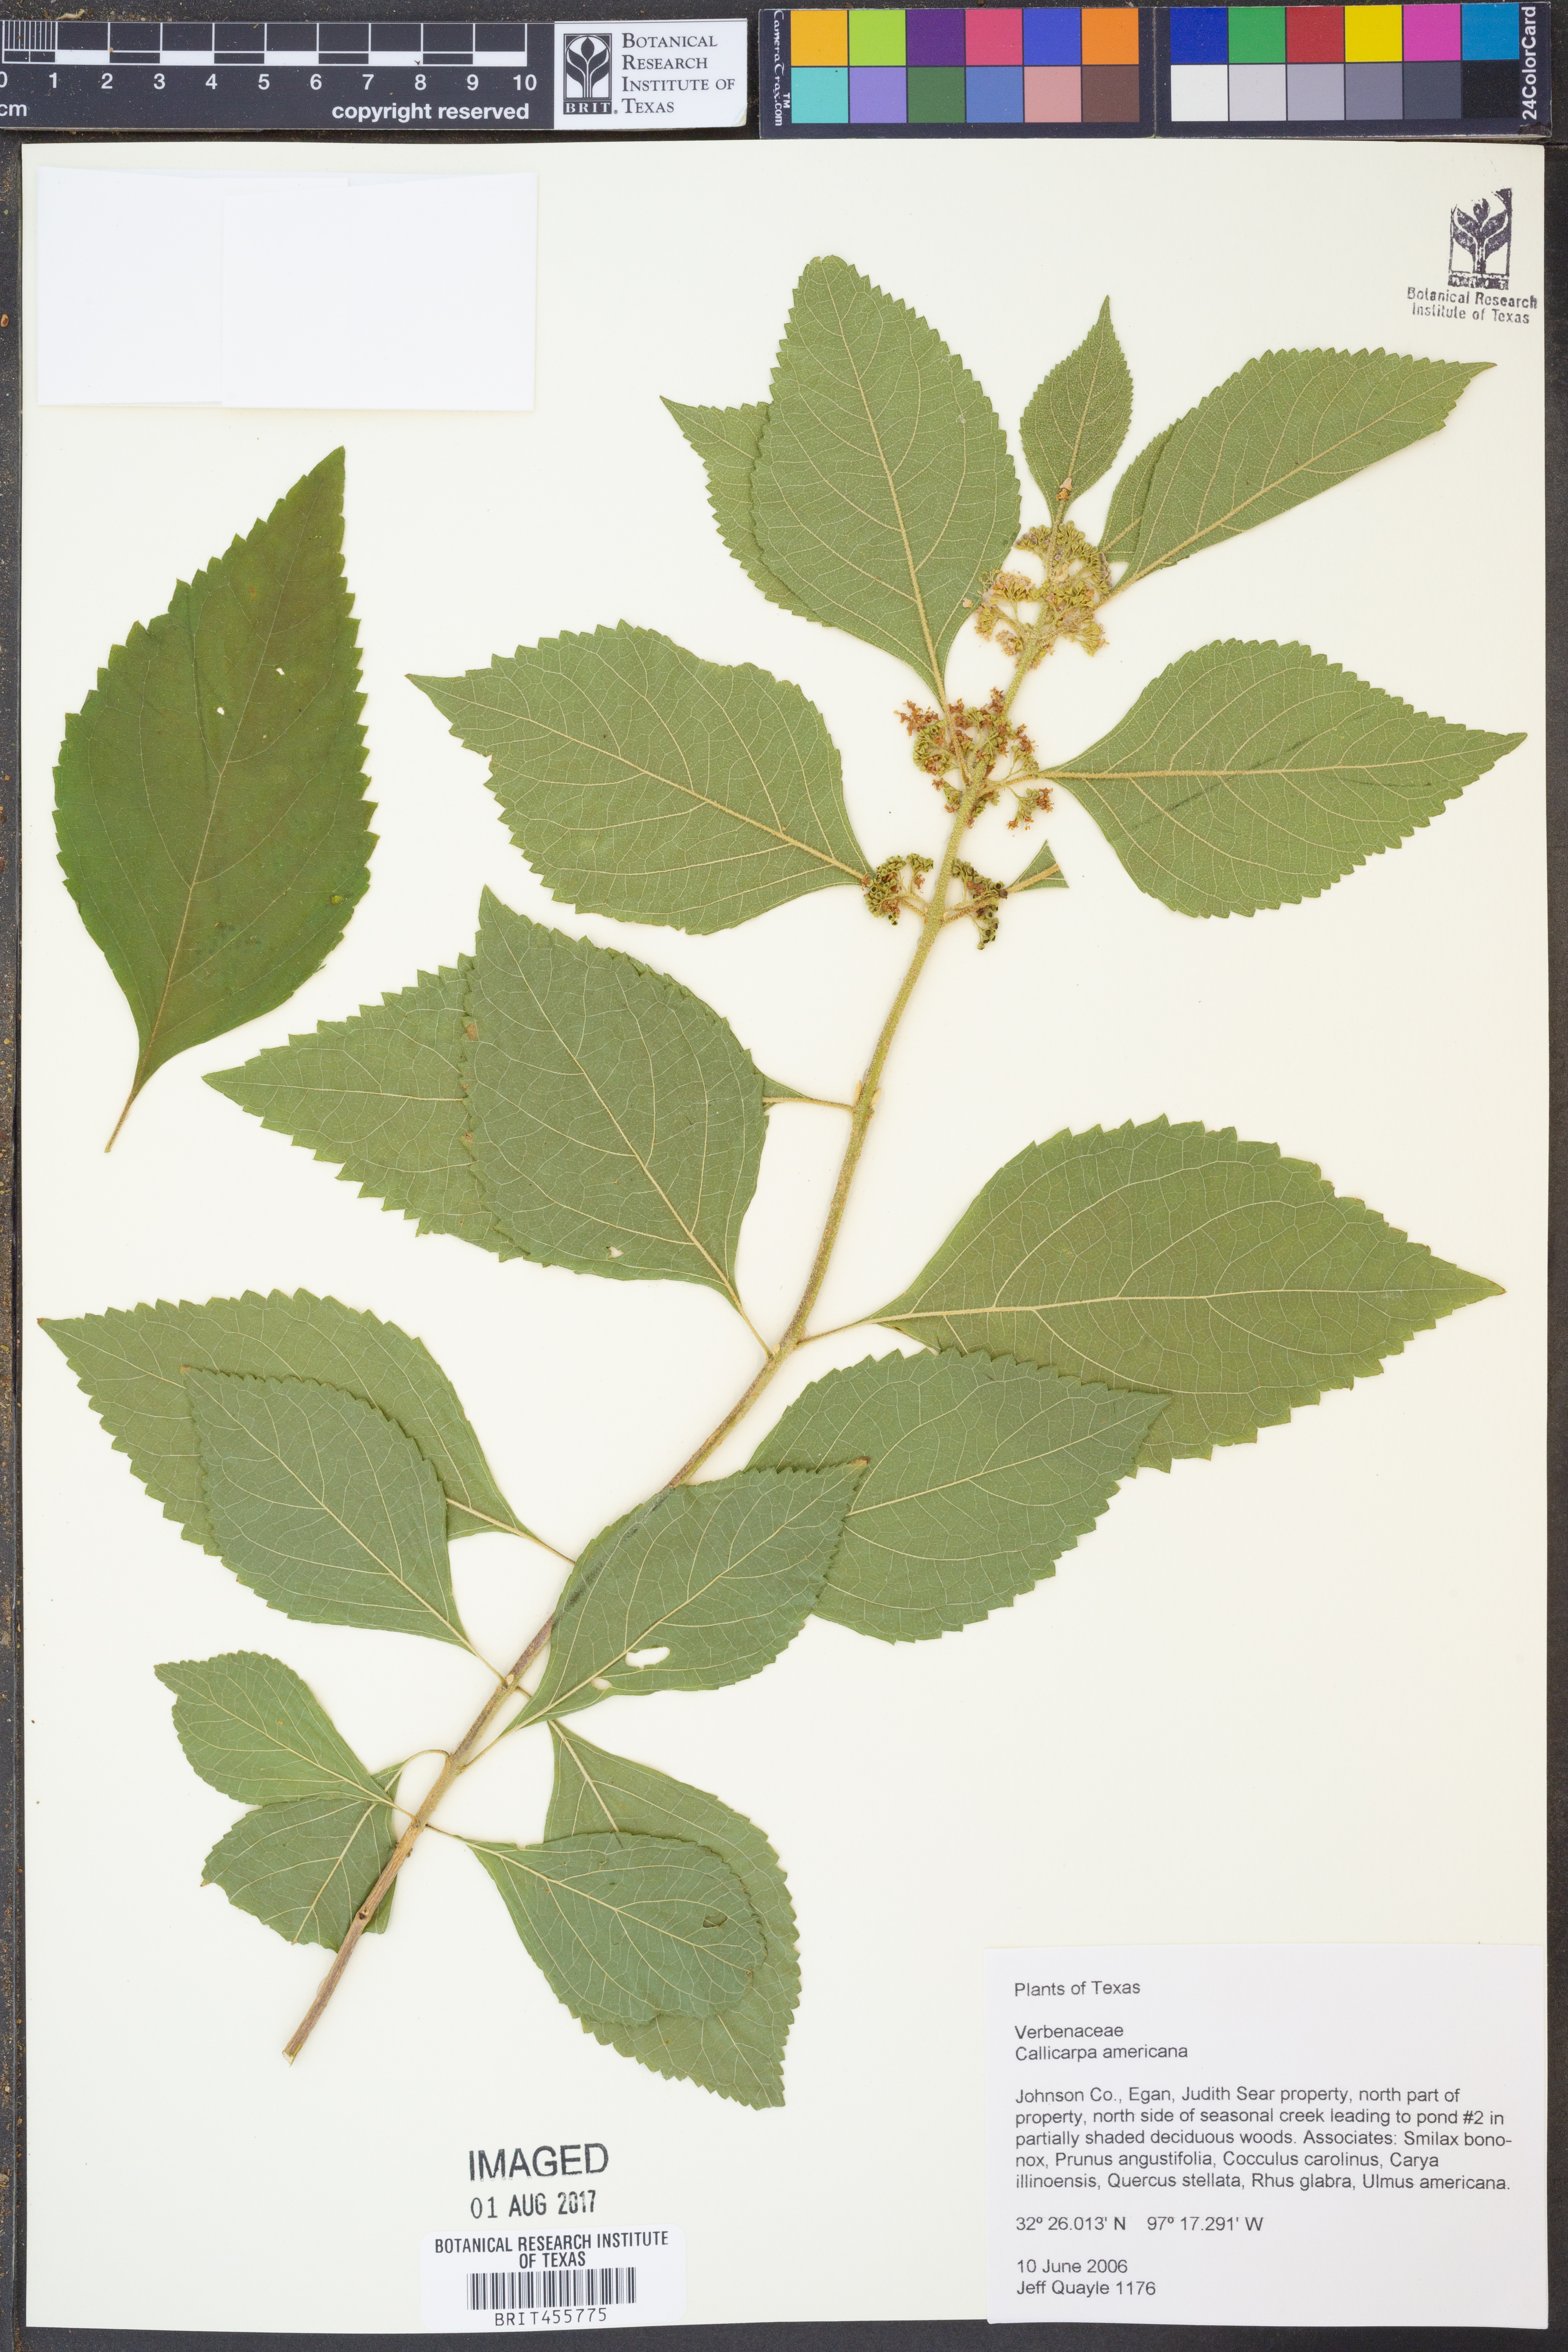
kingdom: Plantae
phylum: Tracheophyta
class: Magnoliopsida
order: Lamiales
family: Lamiaceae
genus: Callicarpa
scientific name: Callicarpa americana
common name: American beautyberry
